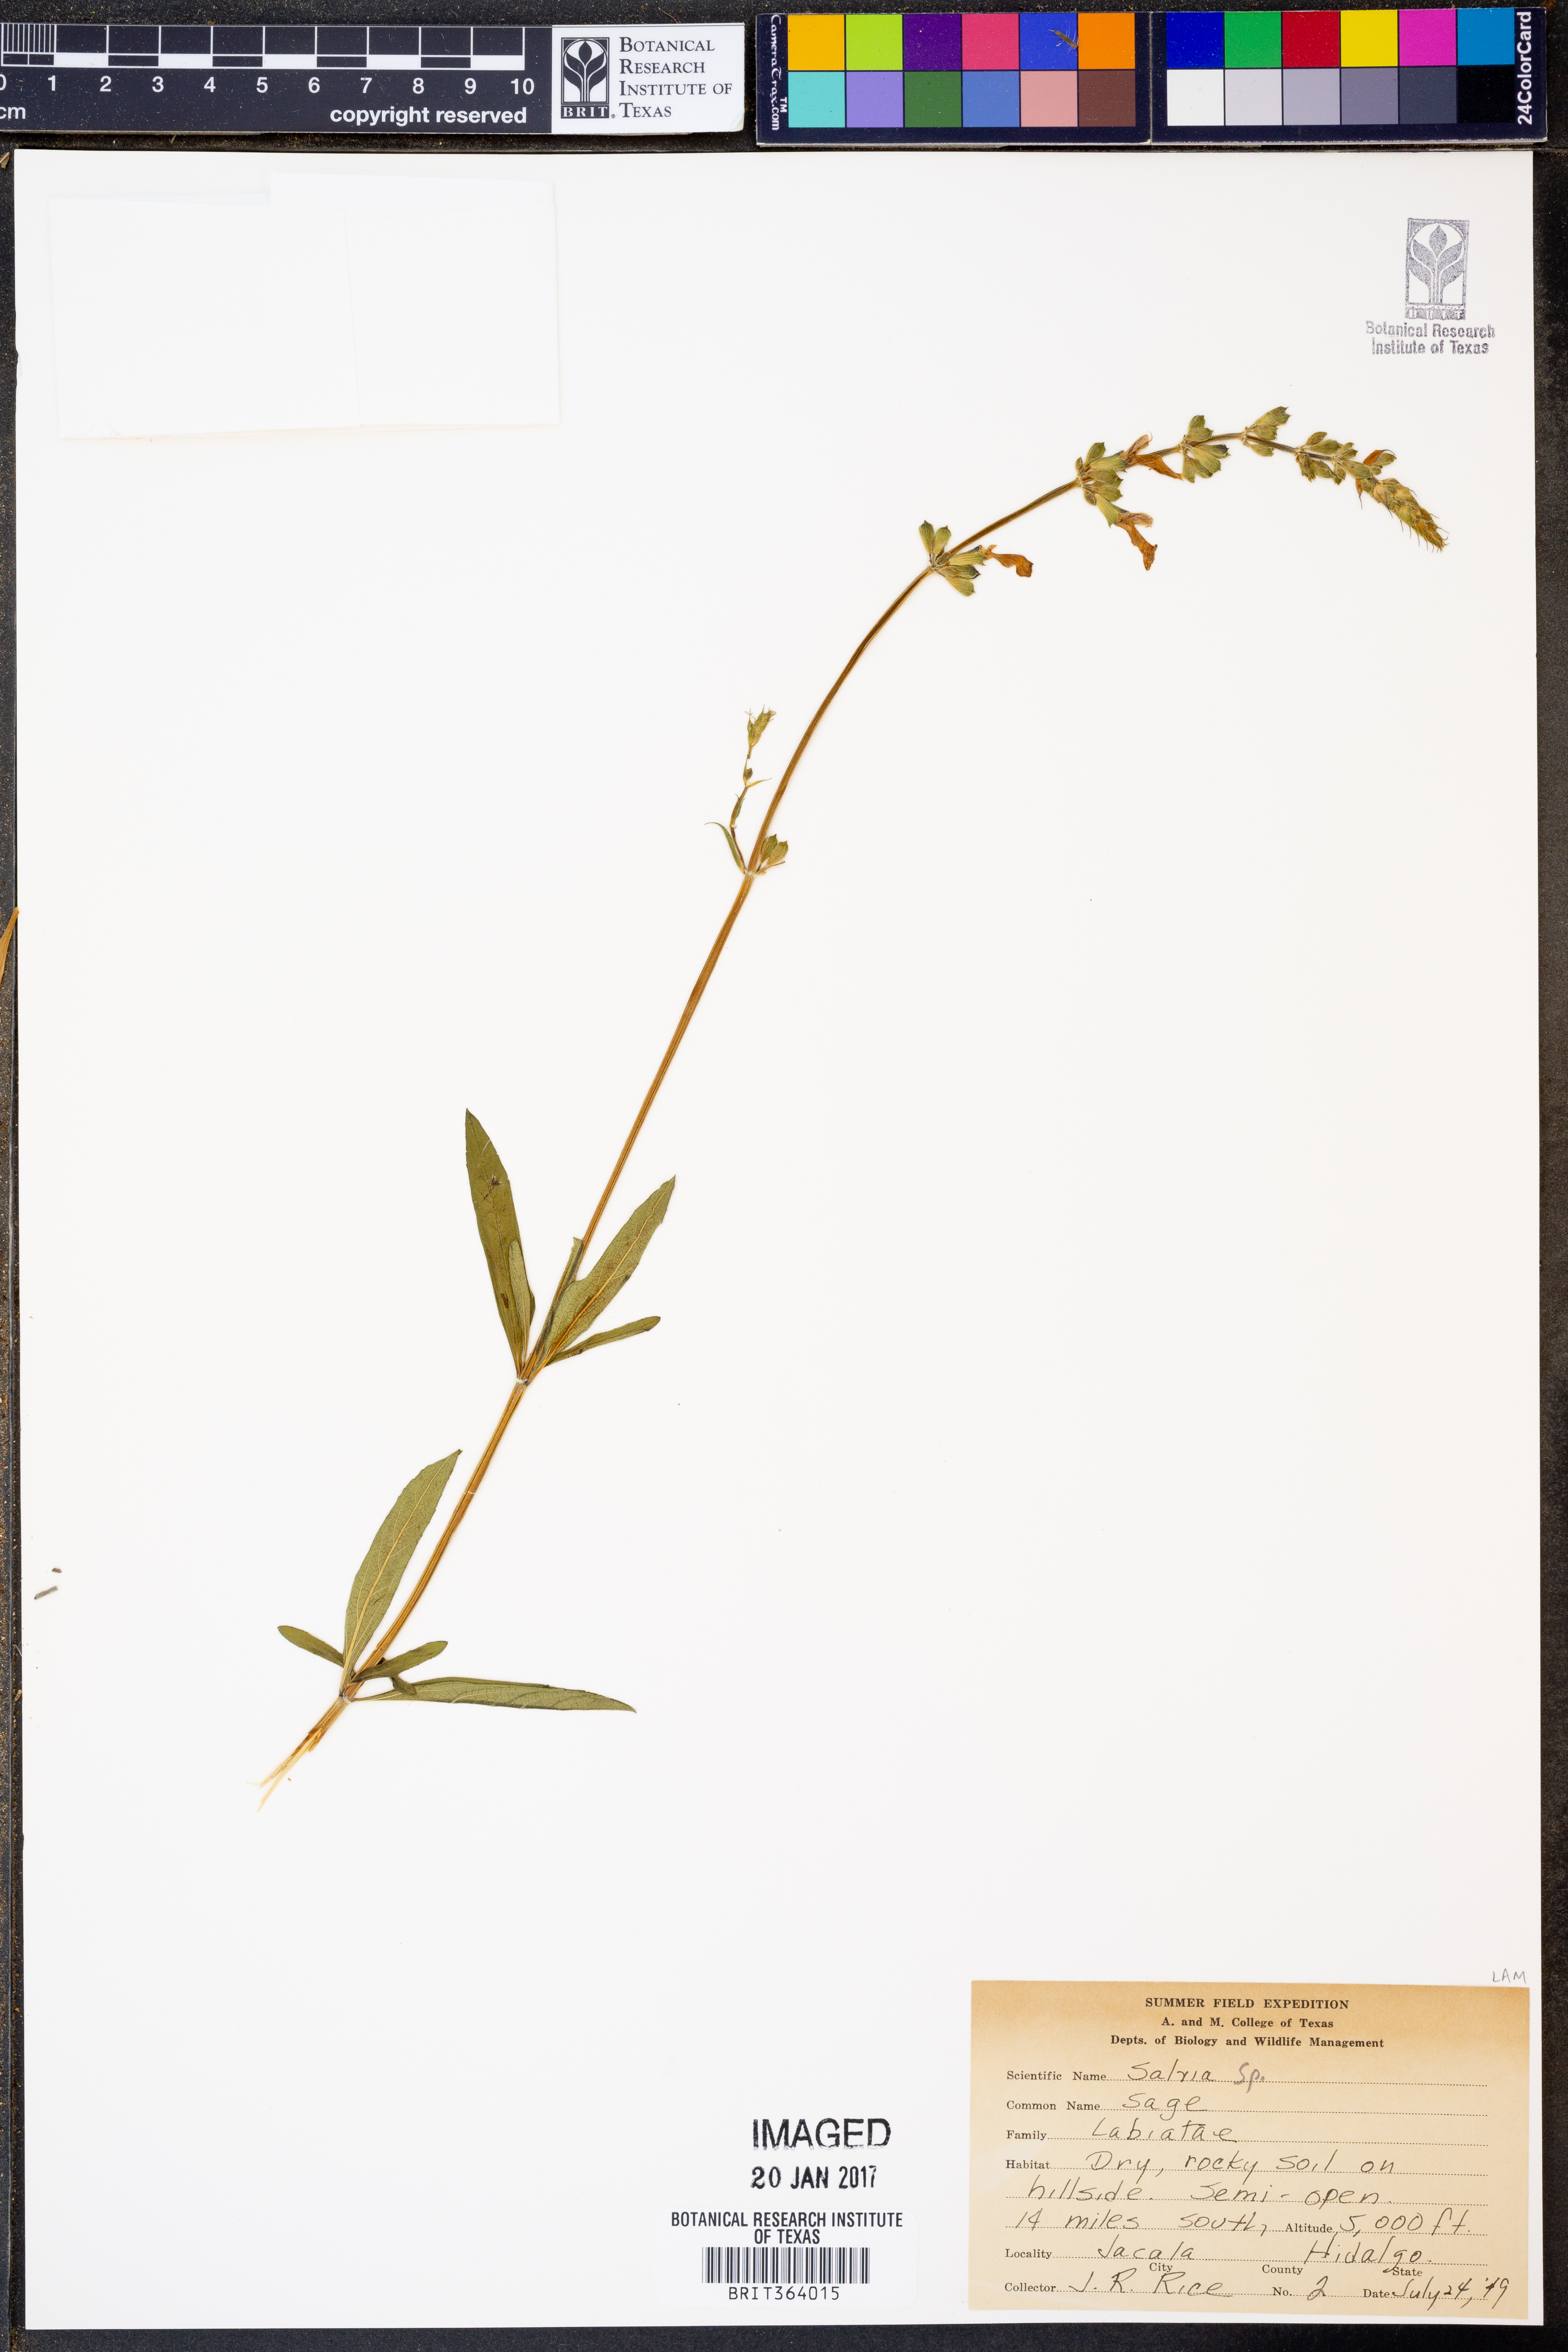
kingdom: Plantae
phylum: Tracheophyta
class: Magnoliopsida
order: Lamiales
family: Lamiaceae
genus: Salvia
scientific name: Salvia
